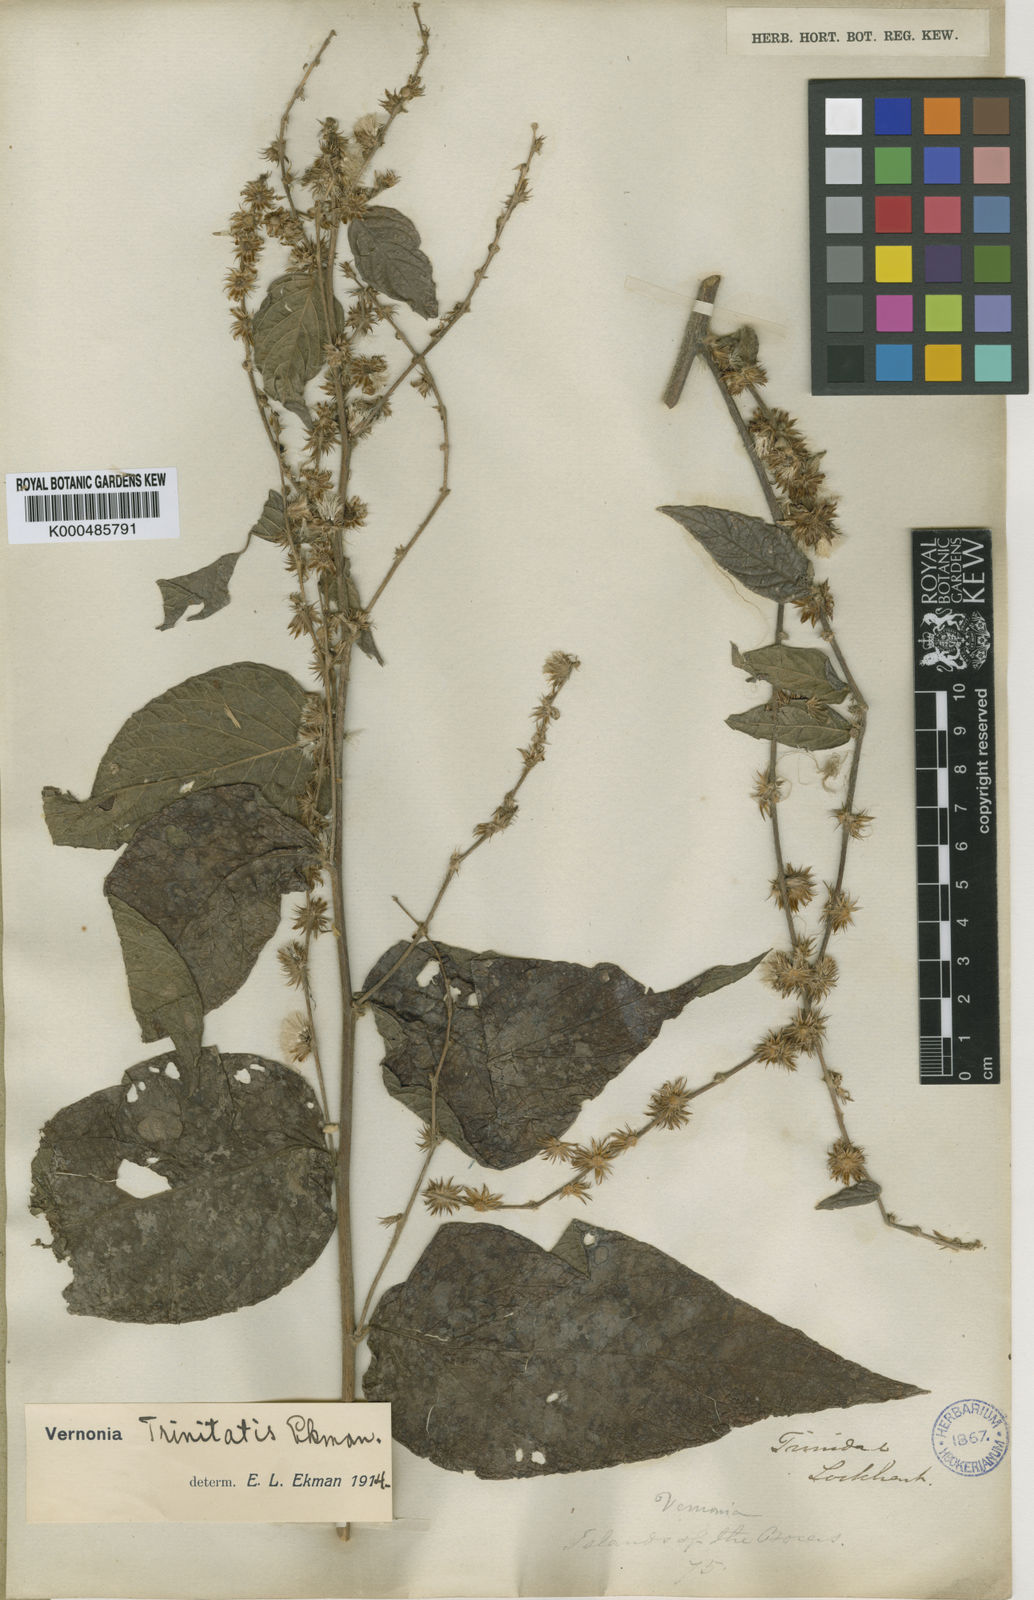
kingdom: Plantae
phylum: Tracheophyta
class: Magnoliopsida
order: Asterales
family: Asteraceae
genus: Lepidaploa
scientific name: Lepidaploa trinitatis
